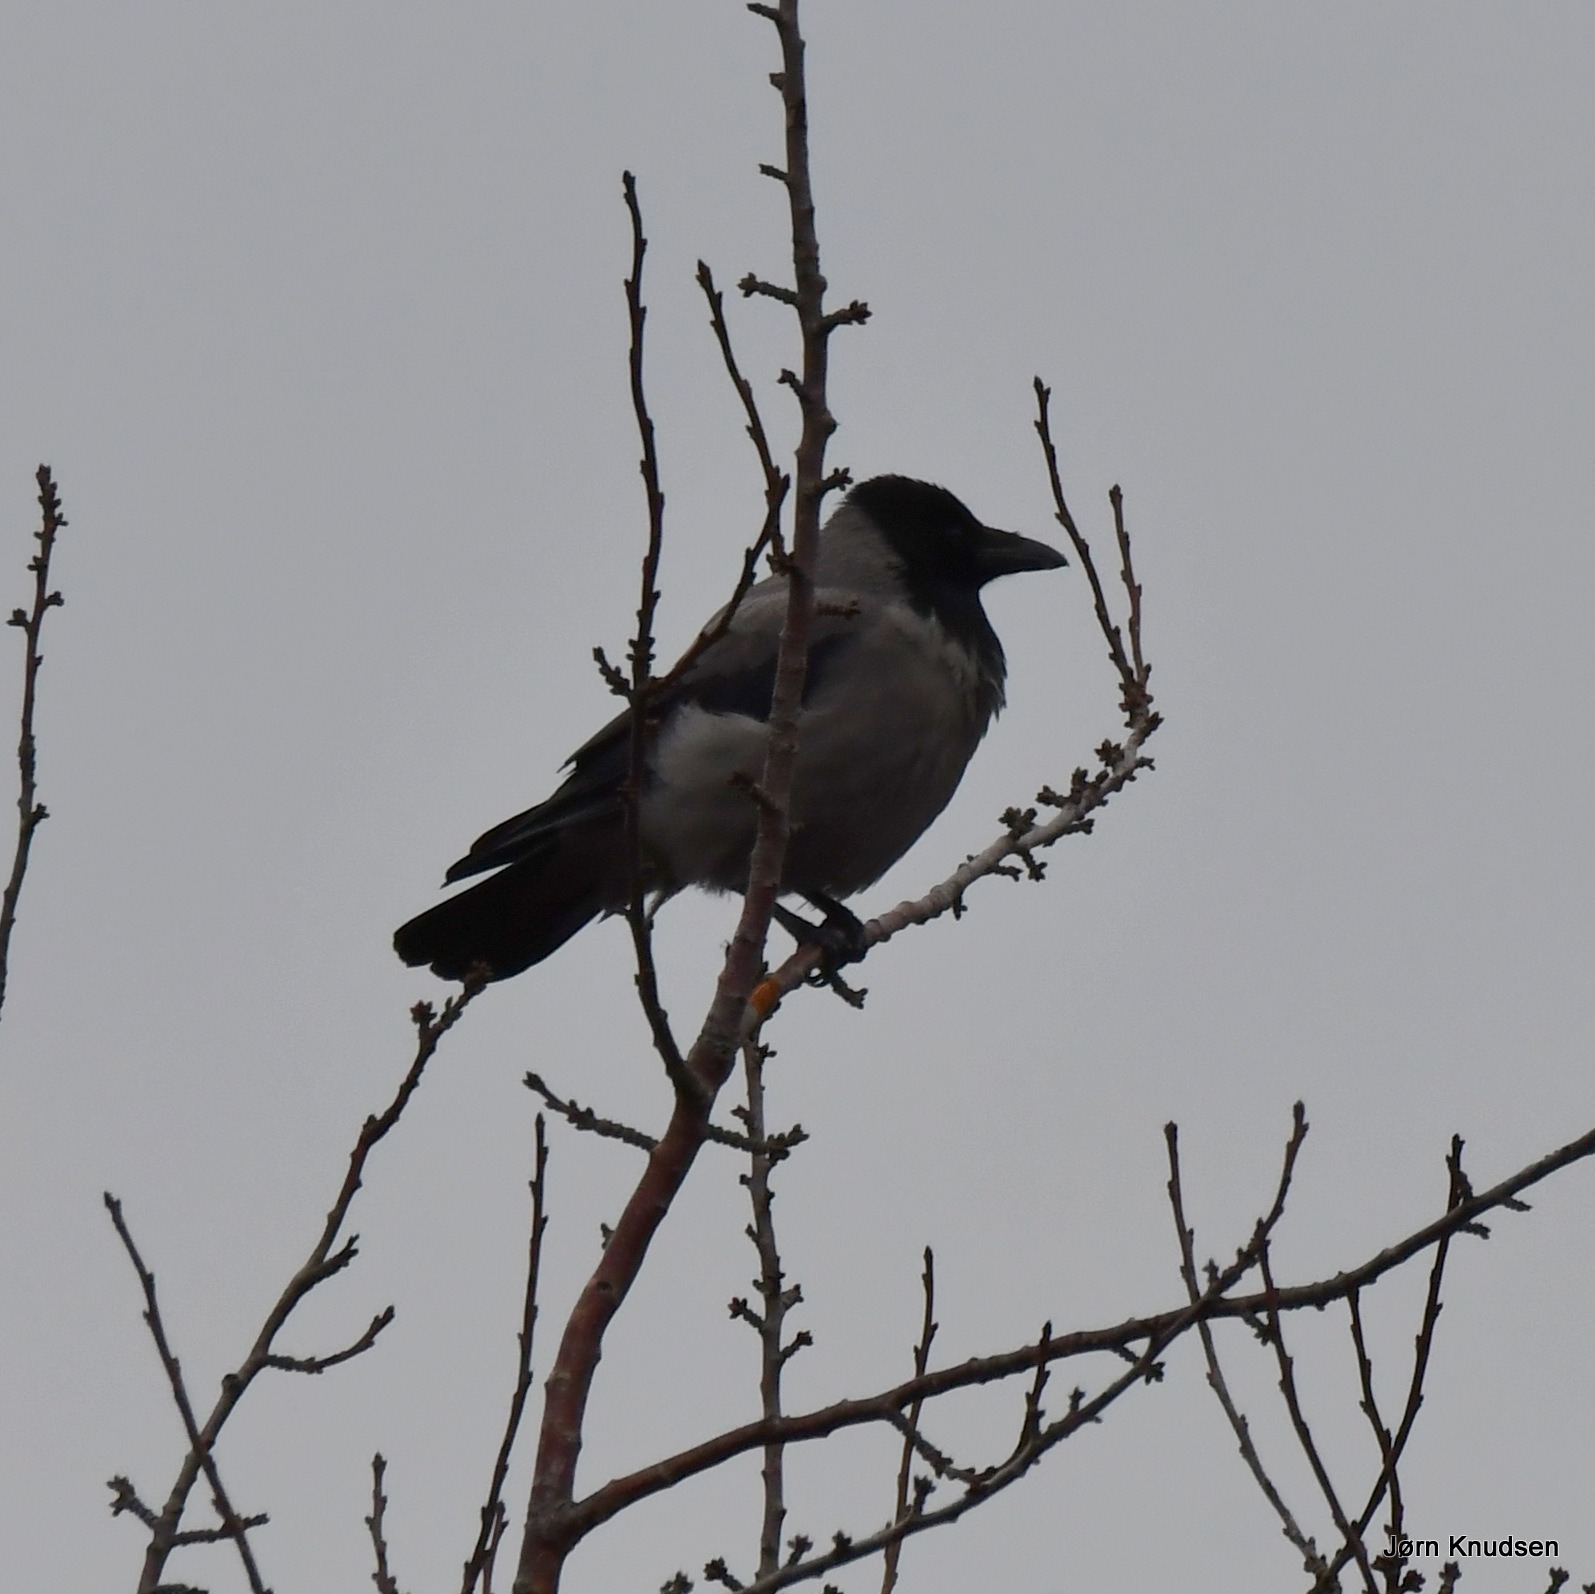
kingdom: Animalia
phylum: Chordata
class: Aves
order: Passeriformes
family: Corvidae
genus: Corvus
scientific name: Corvus cornix
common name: Gråkrage
